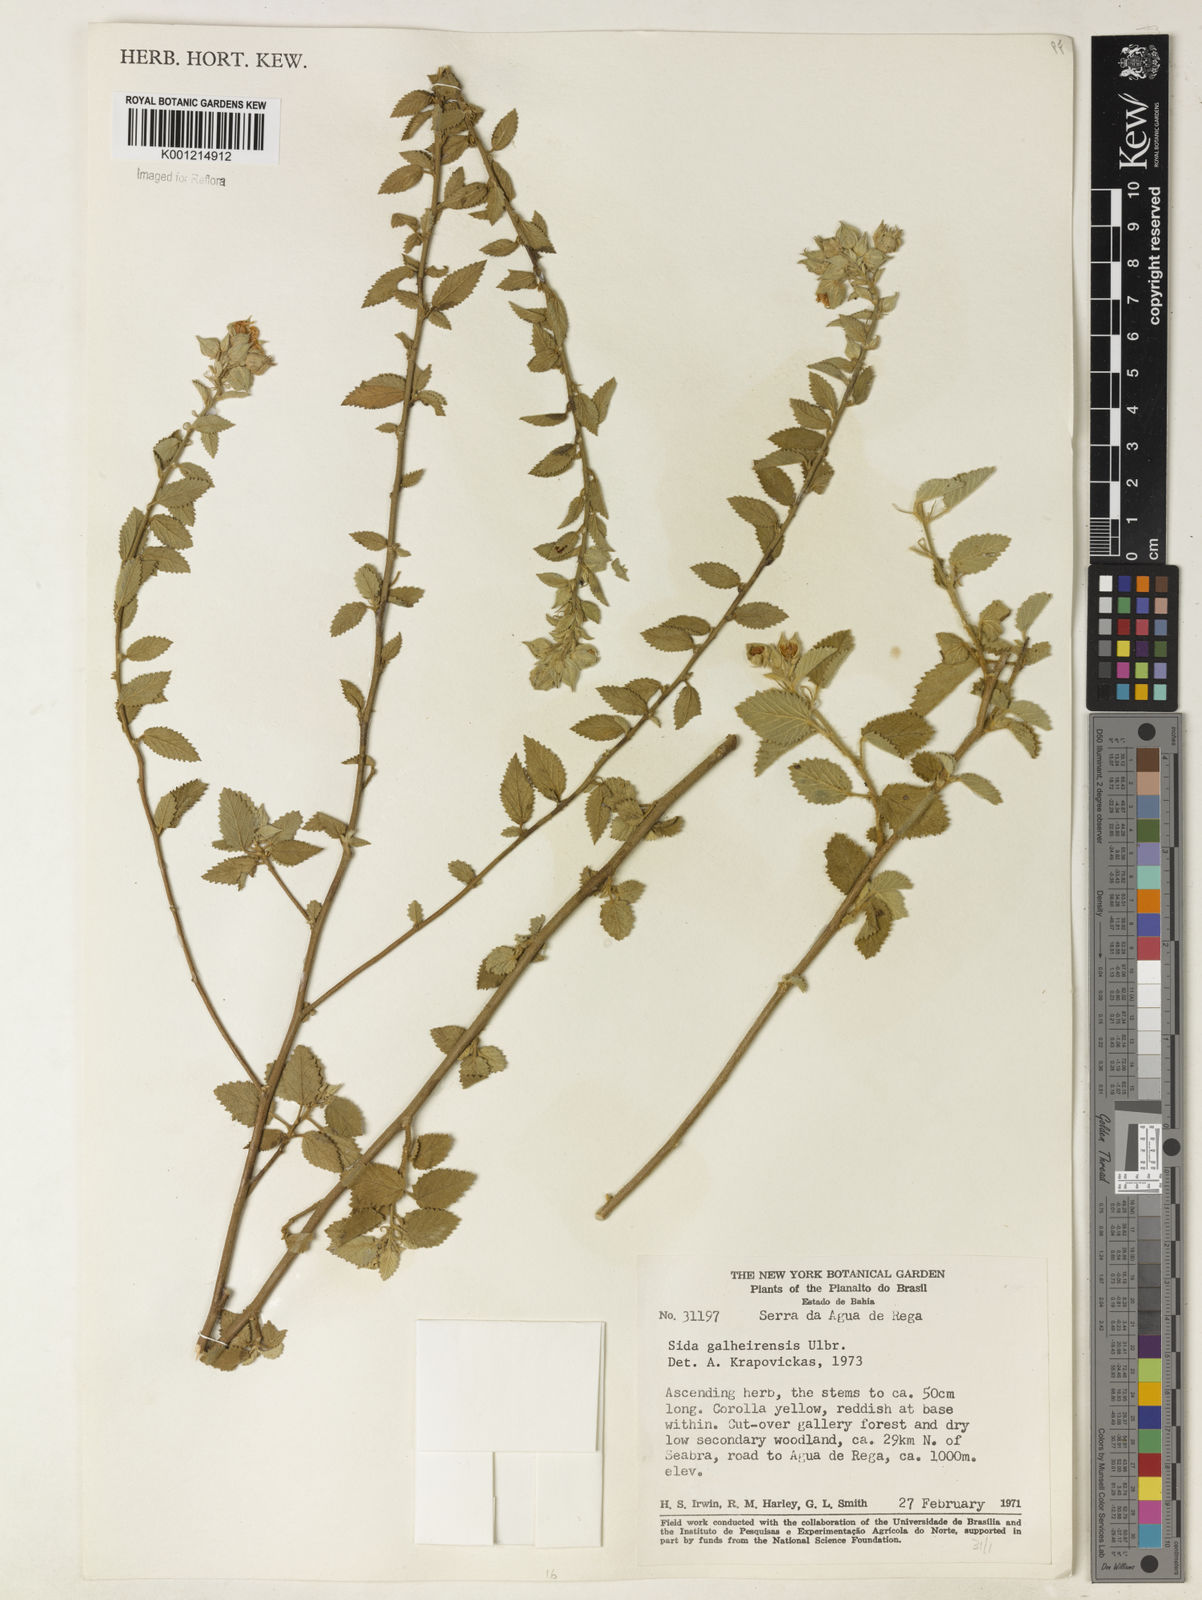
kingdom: Plantae
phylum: Tracheophyta
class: Magnoliopsida
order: Malvales
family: Malvaceae
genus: Sida
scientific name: Sida galheirensis
